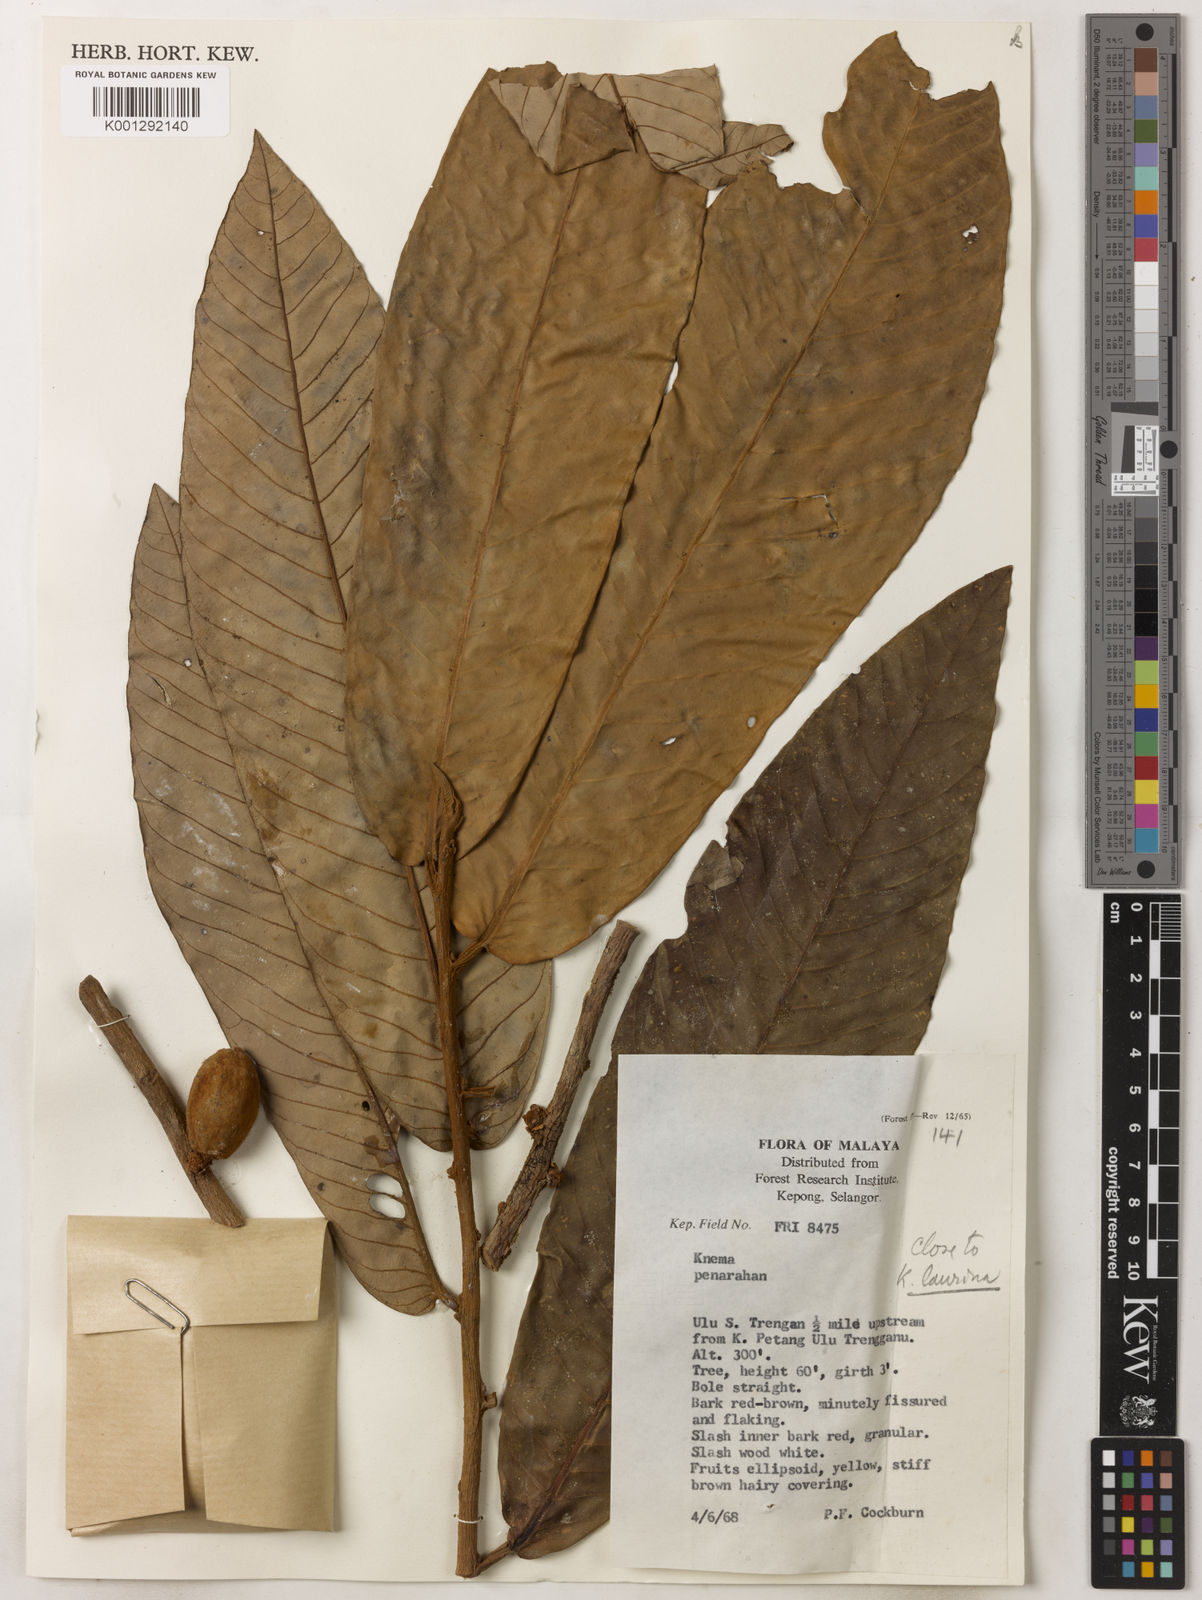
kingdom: Plantae
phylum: Tracheophyta
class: Magnoliopsida
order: Magnoliales
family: Myristicaceae
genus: Knema
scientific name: Knema laurina
